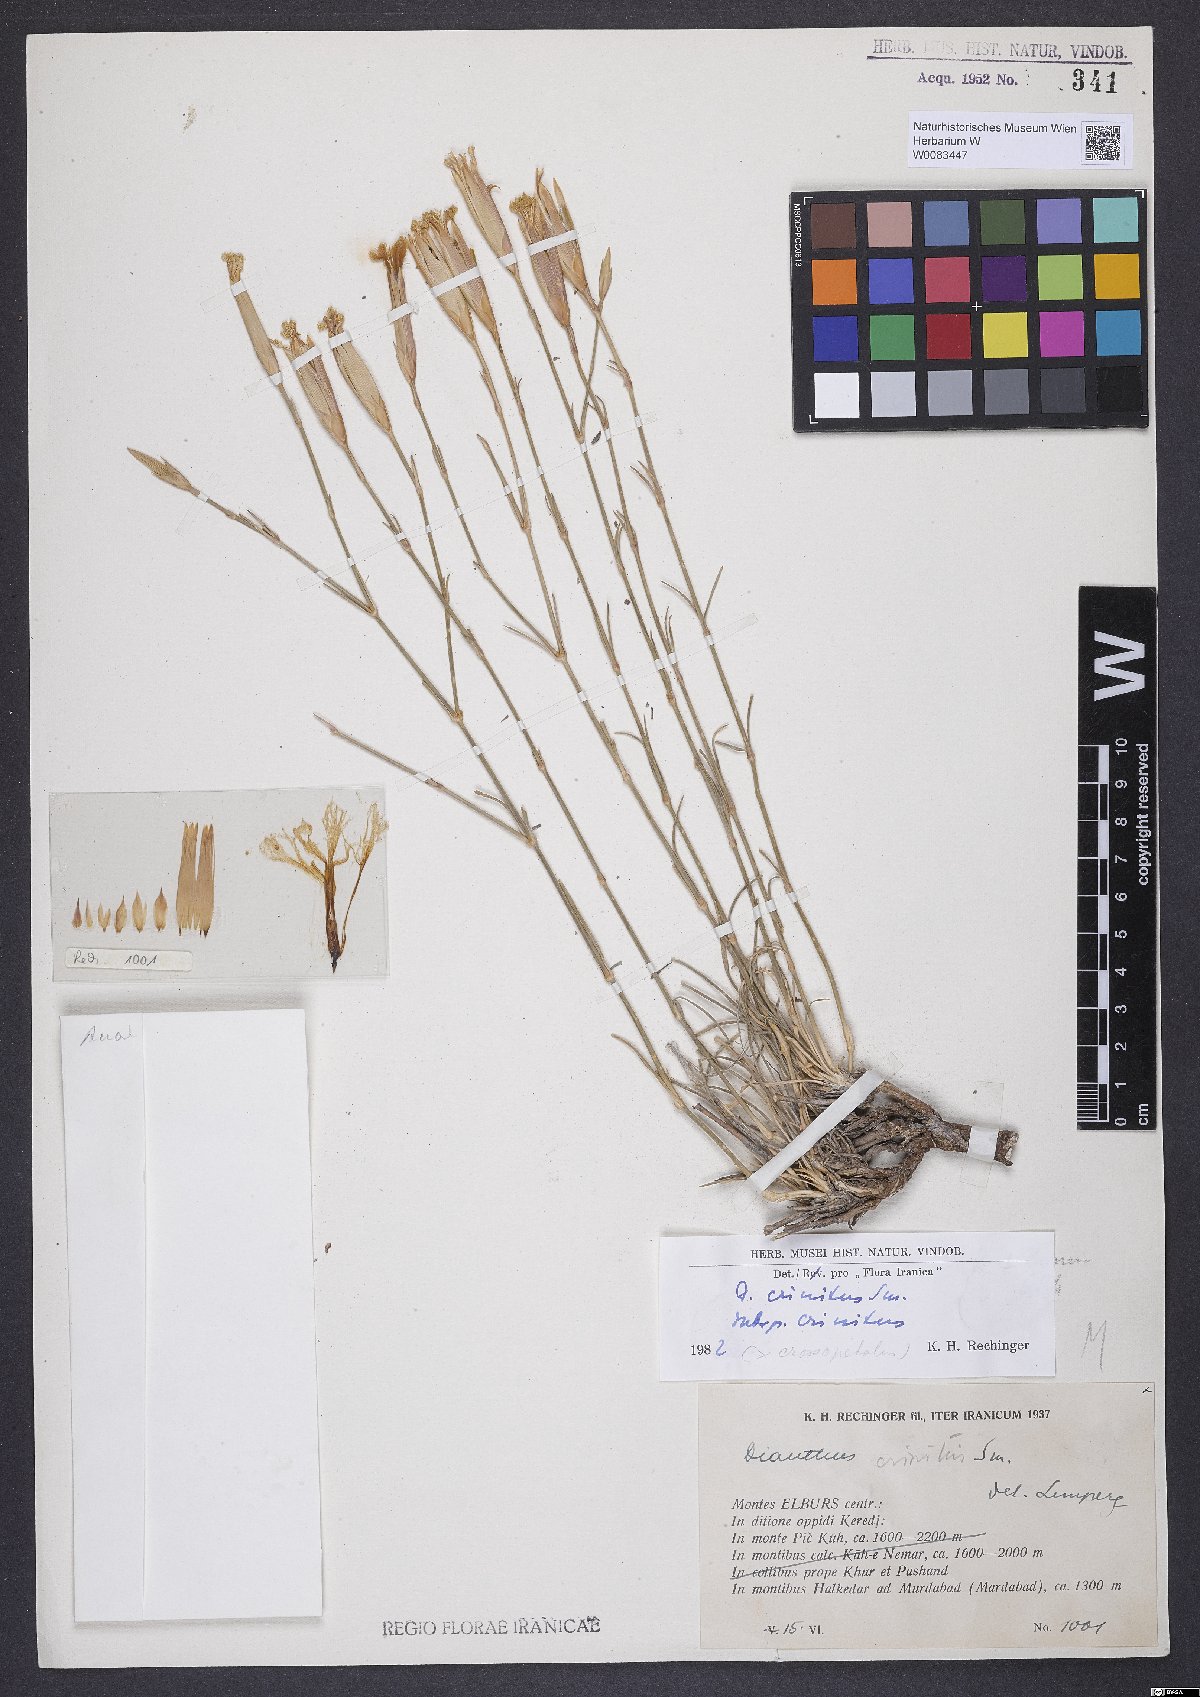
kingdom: Plantae
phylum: Tracheophyta
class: Magnoliopsida
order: Caryophyllales
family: Caryophyllaceae
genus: Dianthus
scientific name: Dianthus crinitus
